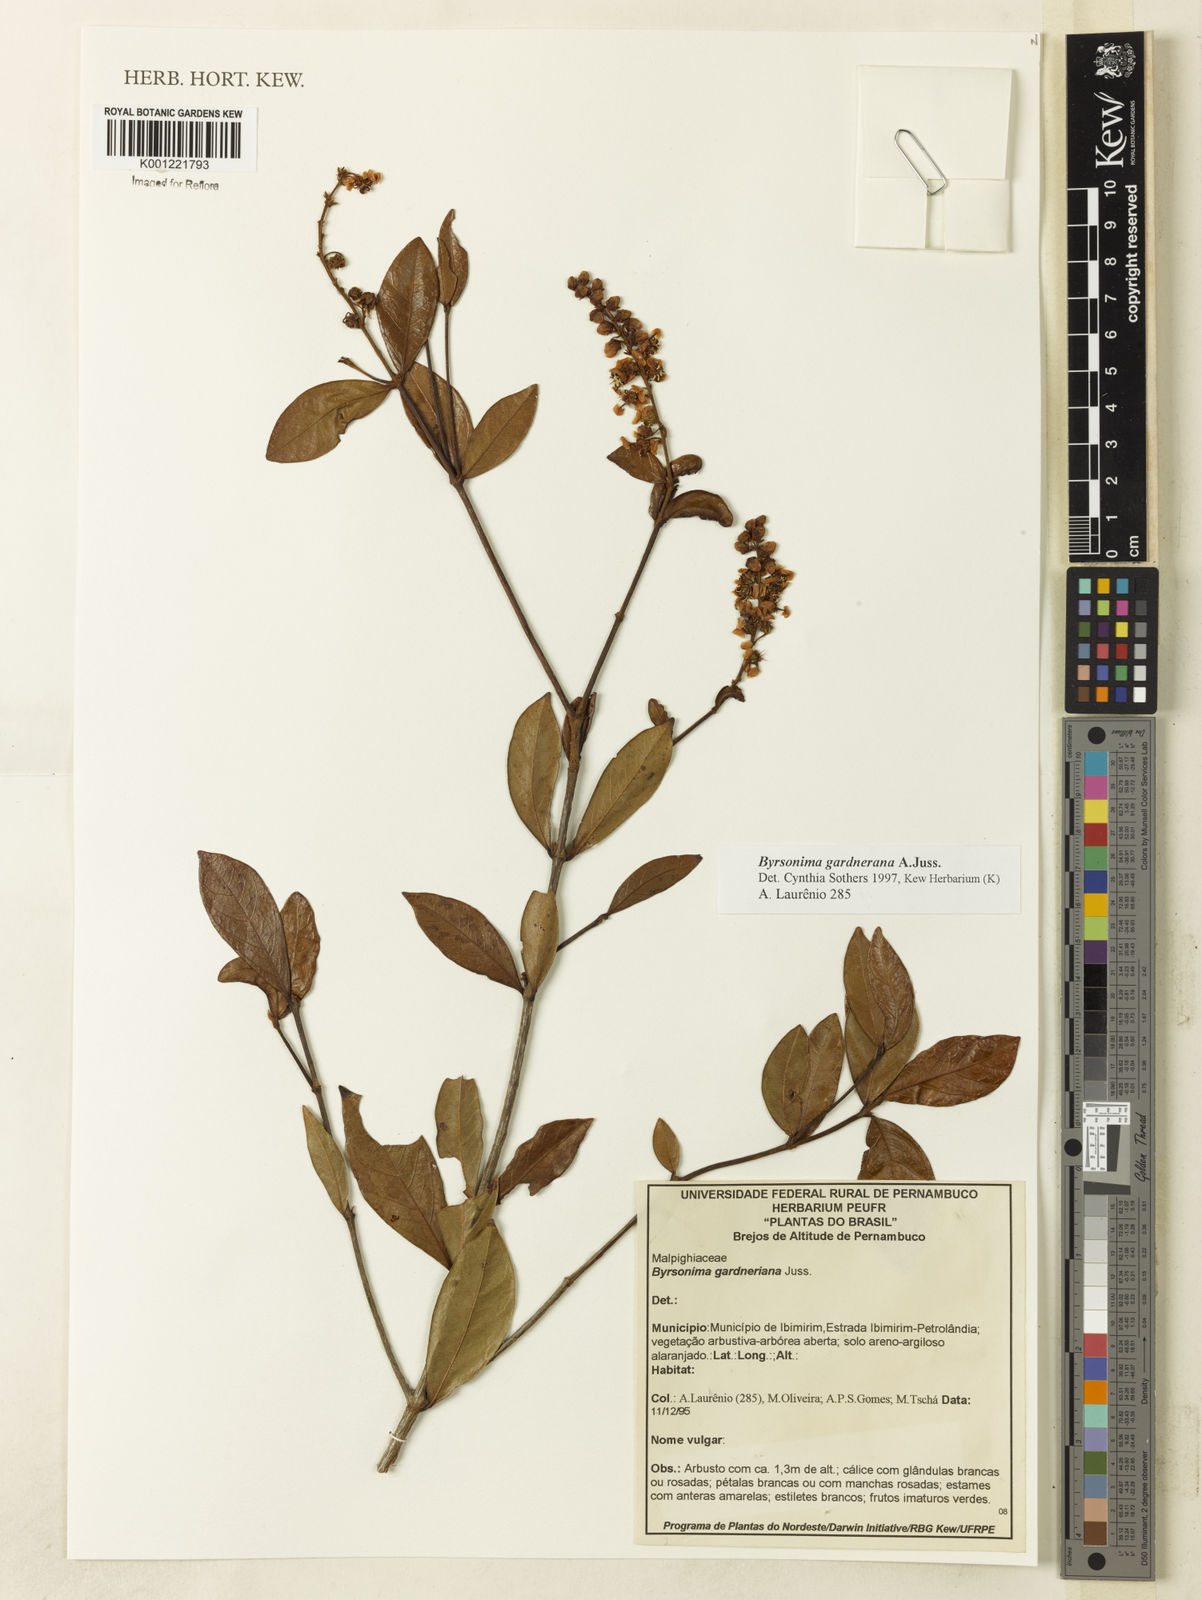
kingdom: Plantae
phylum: Tracheophyta
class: Magnoliopsida
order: Malpighiales
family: Malpighiaceae
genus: Byrsonima
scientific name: Byrsonima gardneriana
